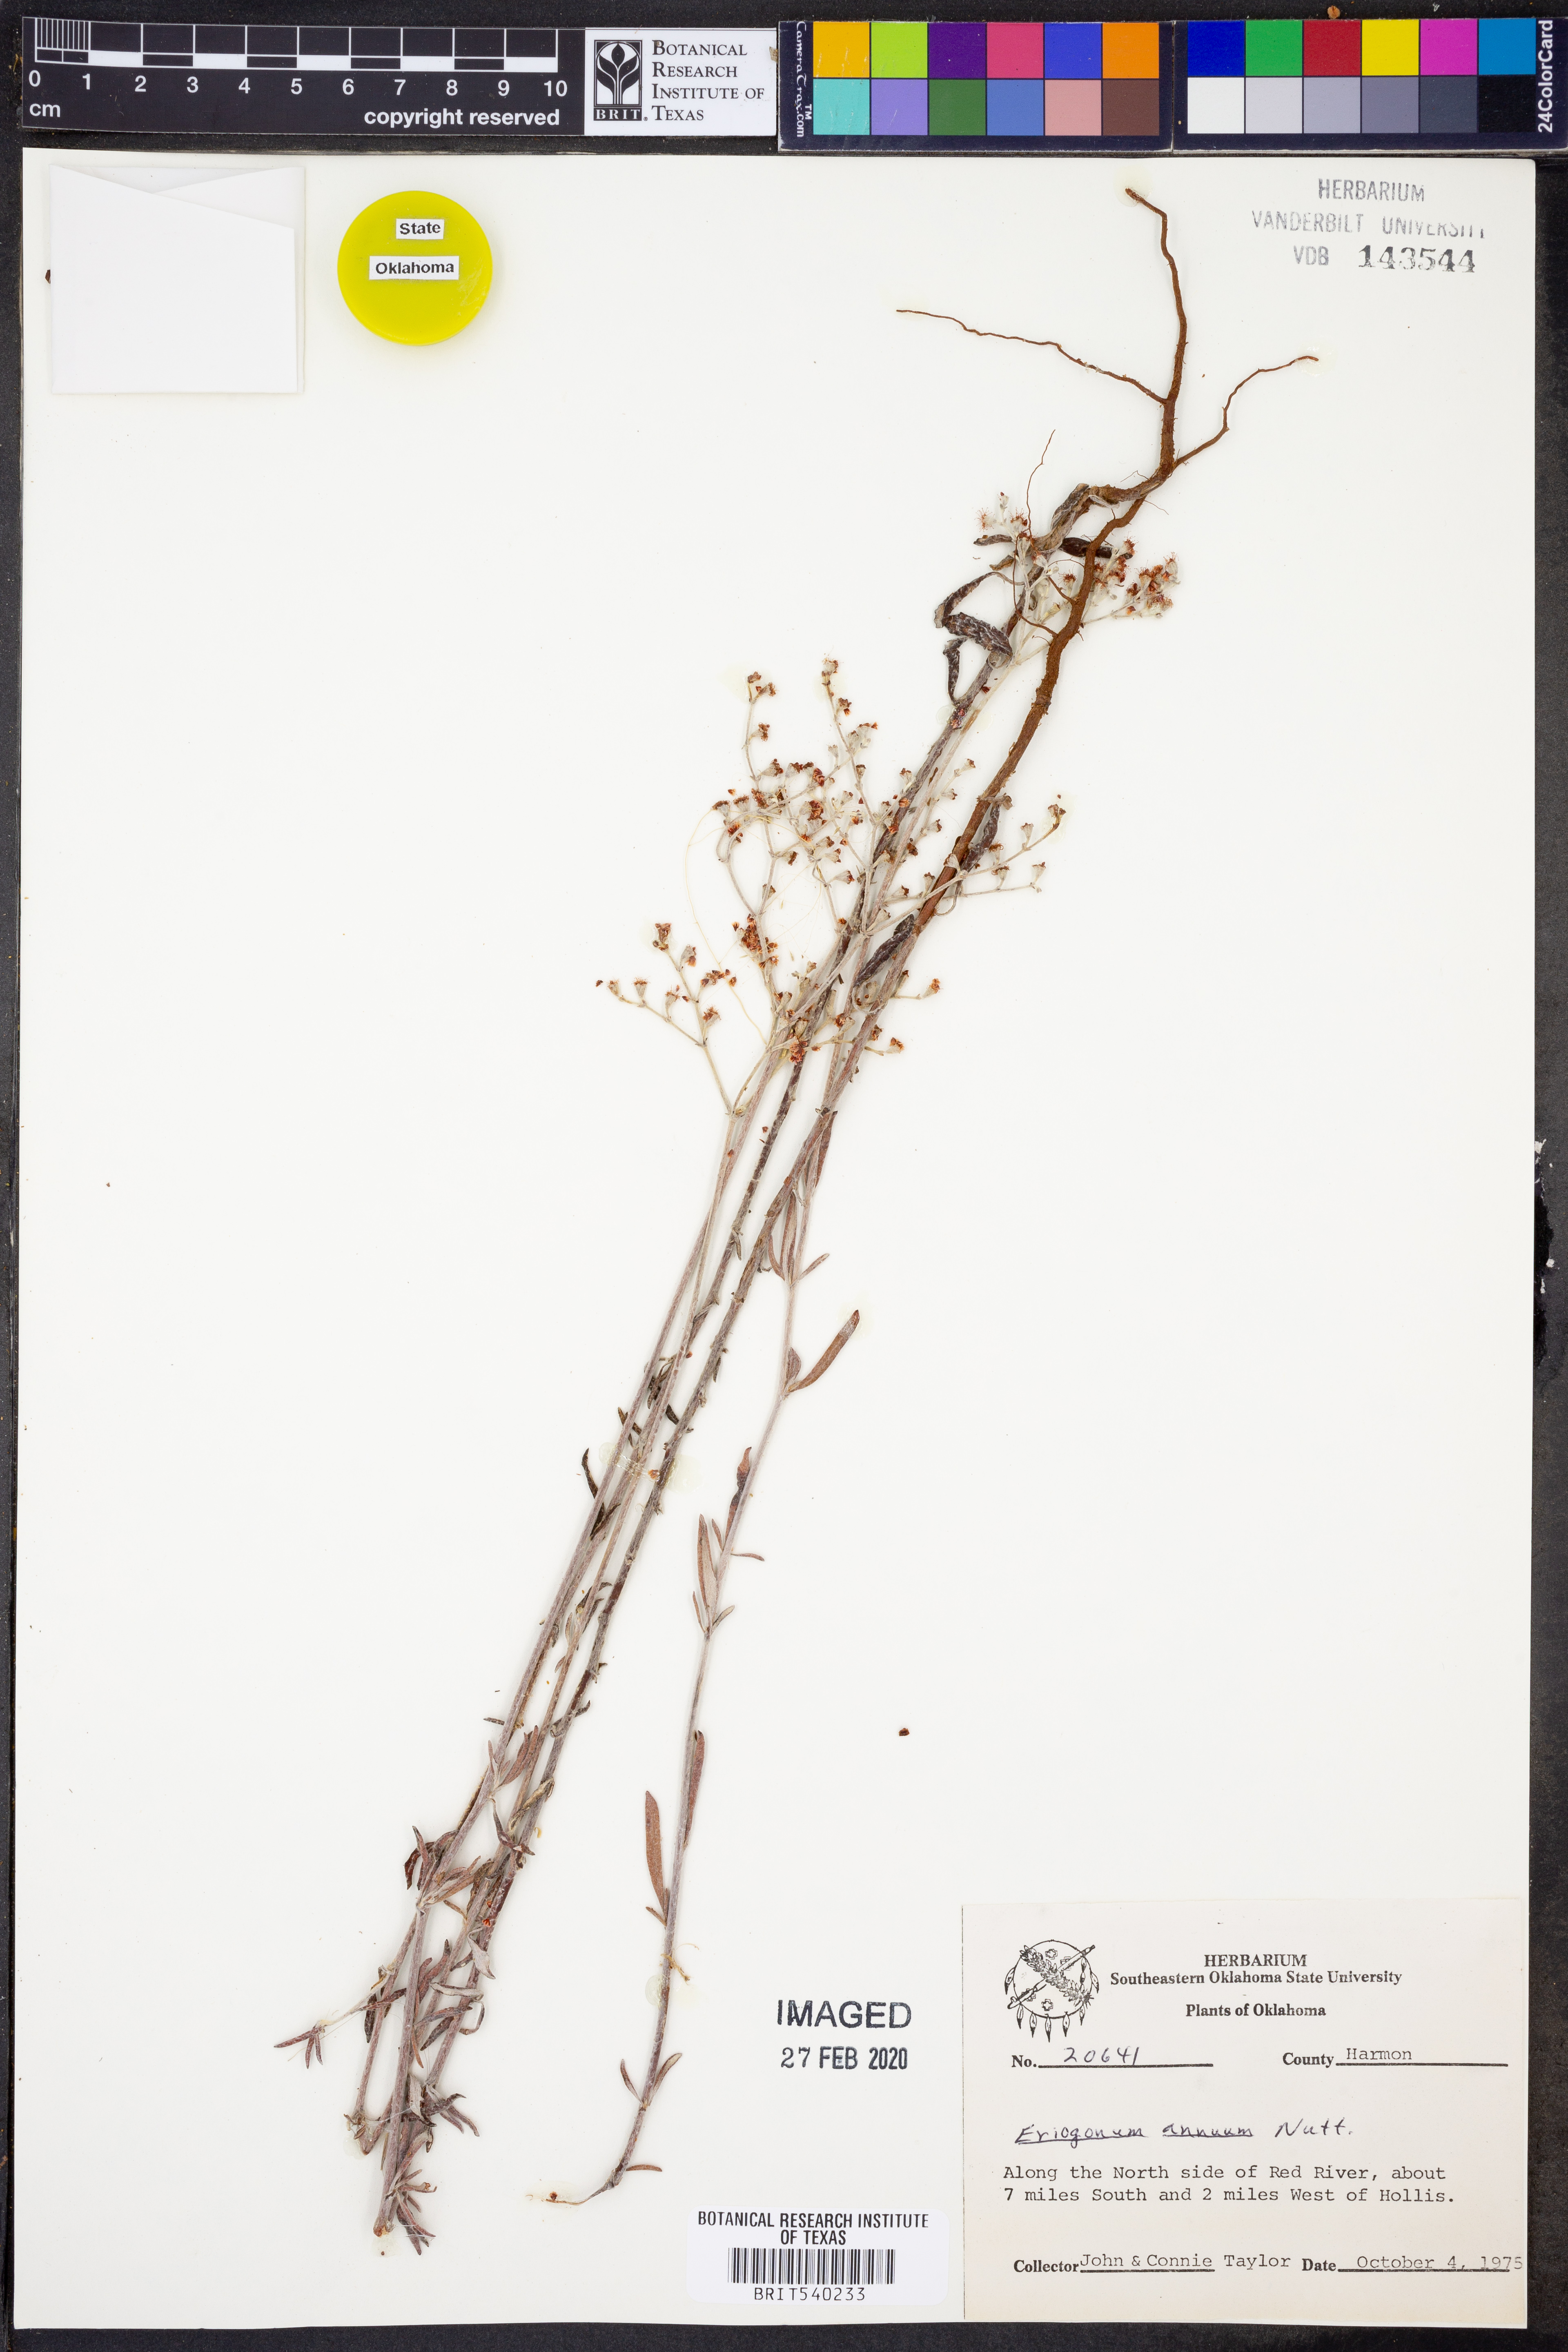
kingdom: Plantae
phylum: Tracheophyta
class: Magnoliopsida
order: Caryophyllales
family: Polygonaceae
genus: Eriogonum
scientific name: Eriogonum annuum
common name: Annual wild buckwheat
